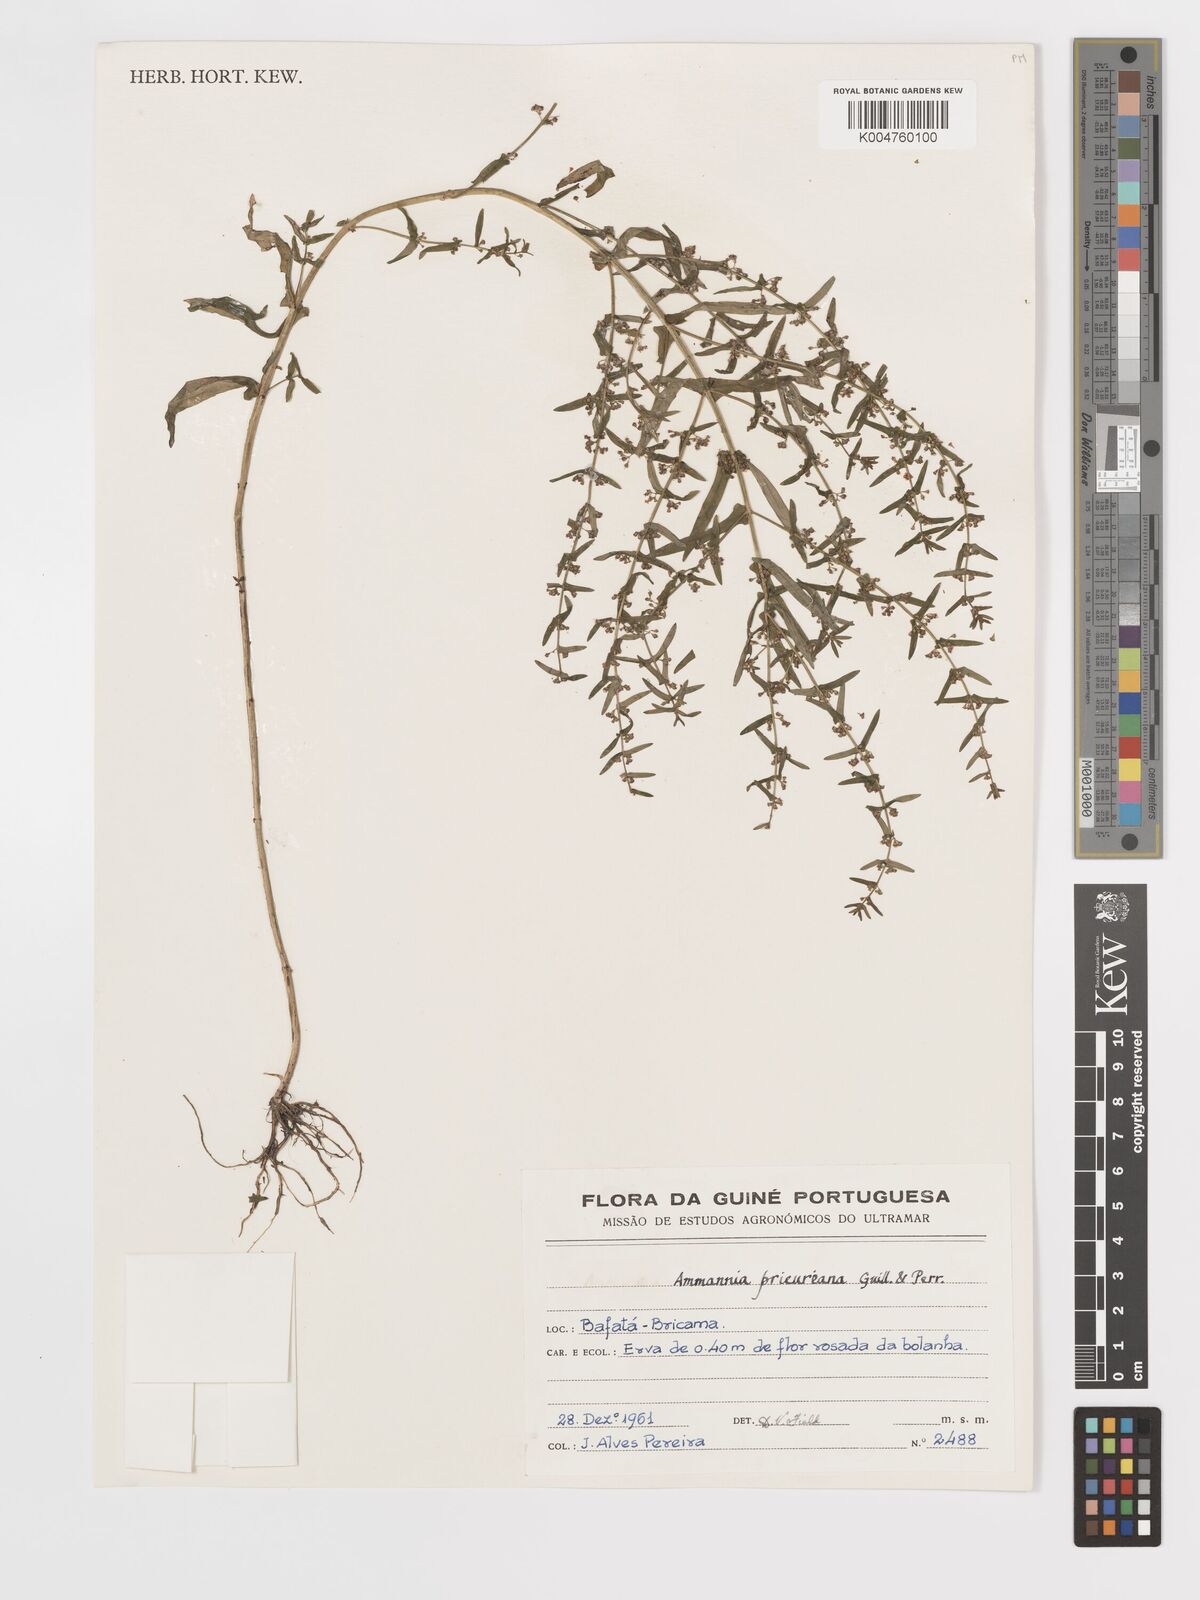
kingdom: Plantae
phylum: Tracheophyta
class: Magnoliopsida
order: Myrtales
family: Lythraceae
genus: Ammannia
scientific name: Ammannia prieuriana
